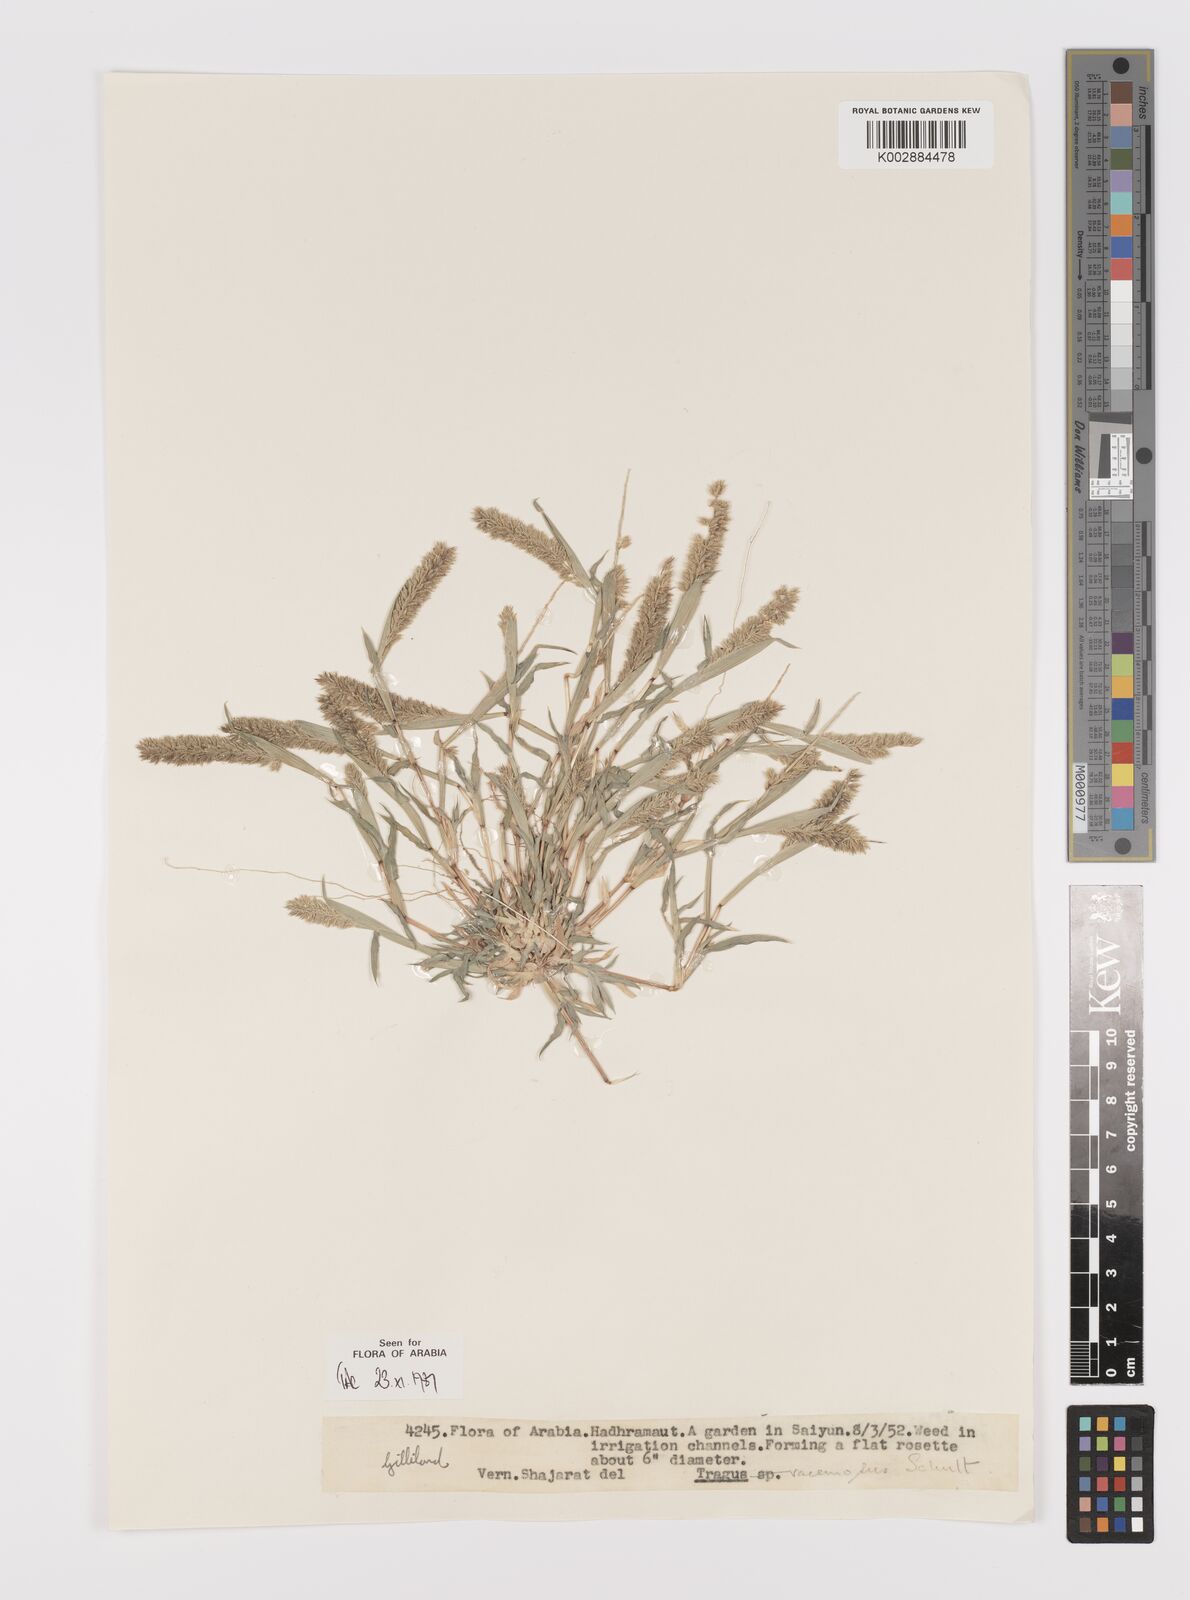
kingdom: Plantae
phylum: Tracheophyta
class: Liliopsida
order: Poales
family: Poaceae
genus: Tragus
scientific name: Tragus racemosus
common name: European bur-grass
